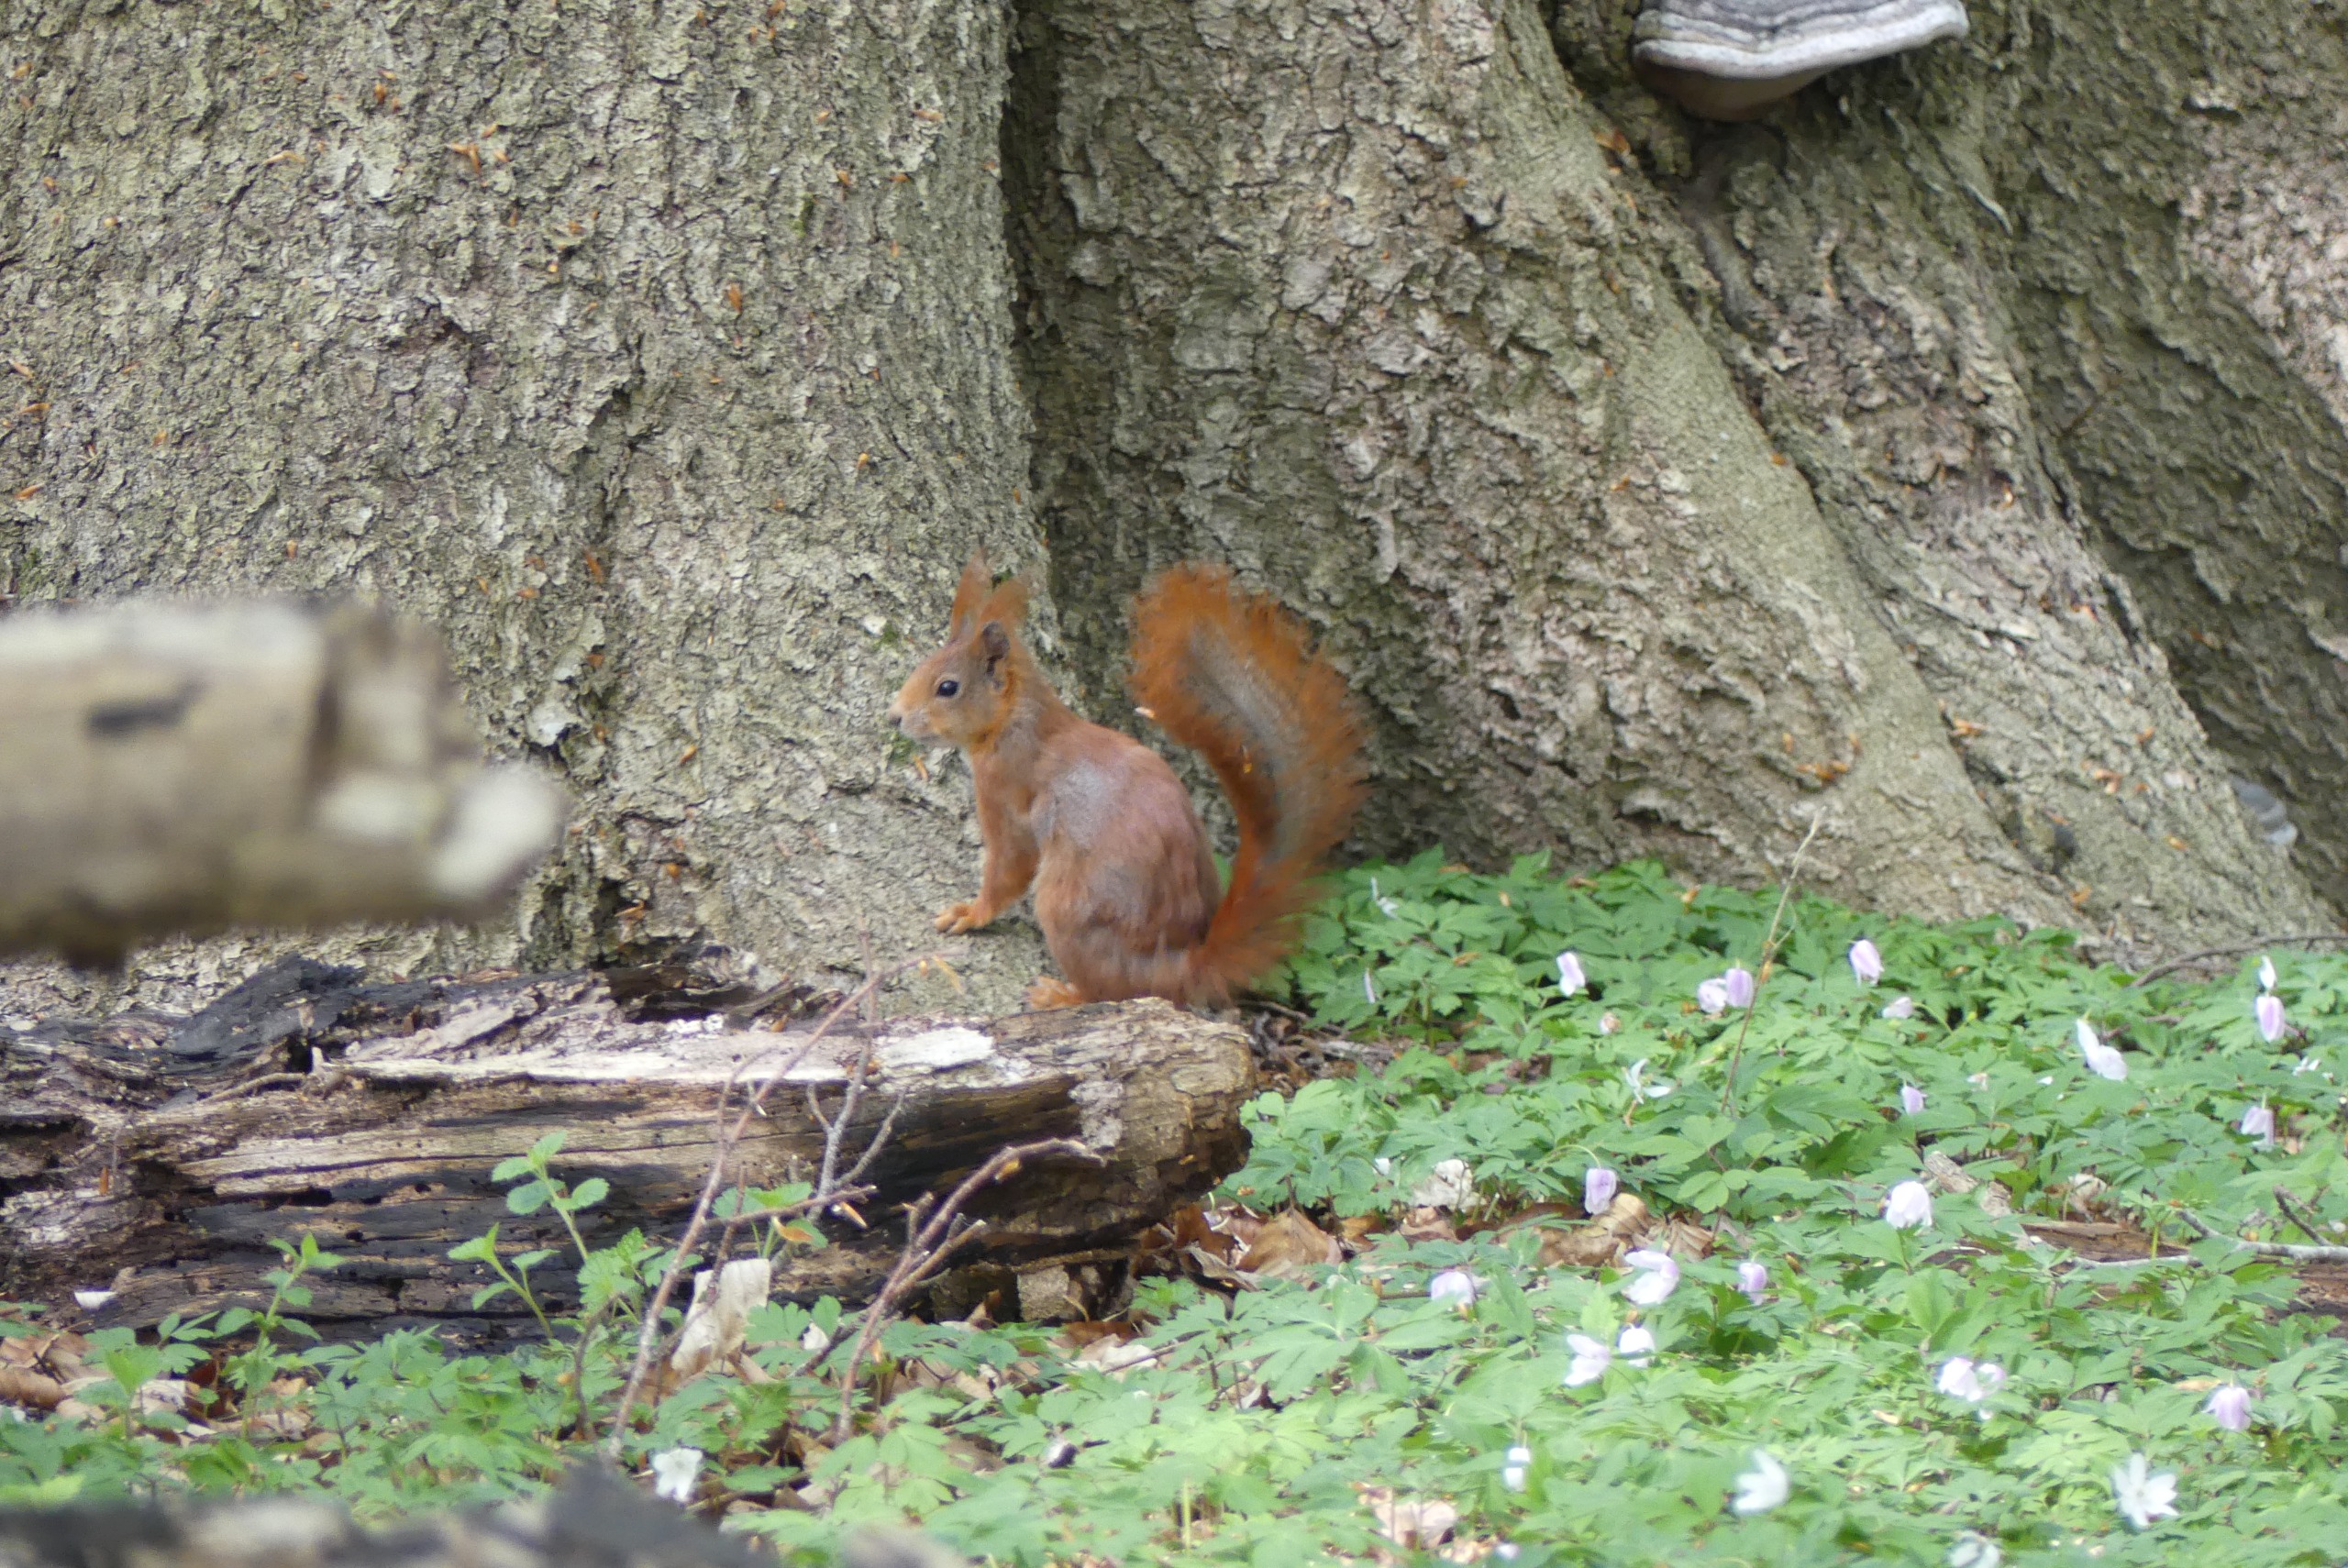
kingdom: Animalia
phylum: Chordata
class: Mammalia
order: Rodentia
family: Sciuridae
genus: Sciurus
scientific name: Sciurus vulgaris
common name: Egern
